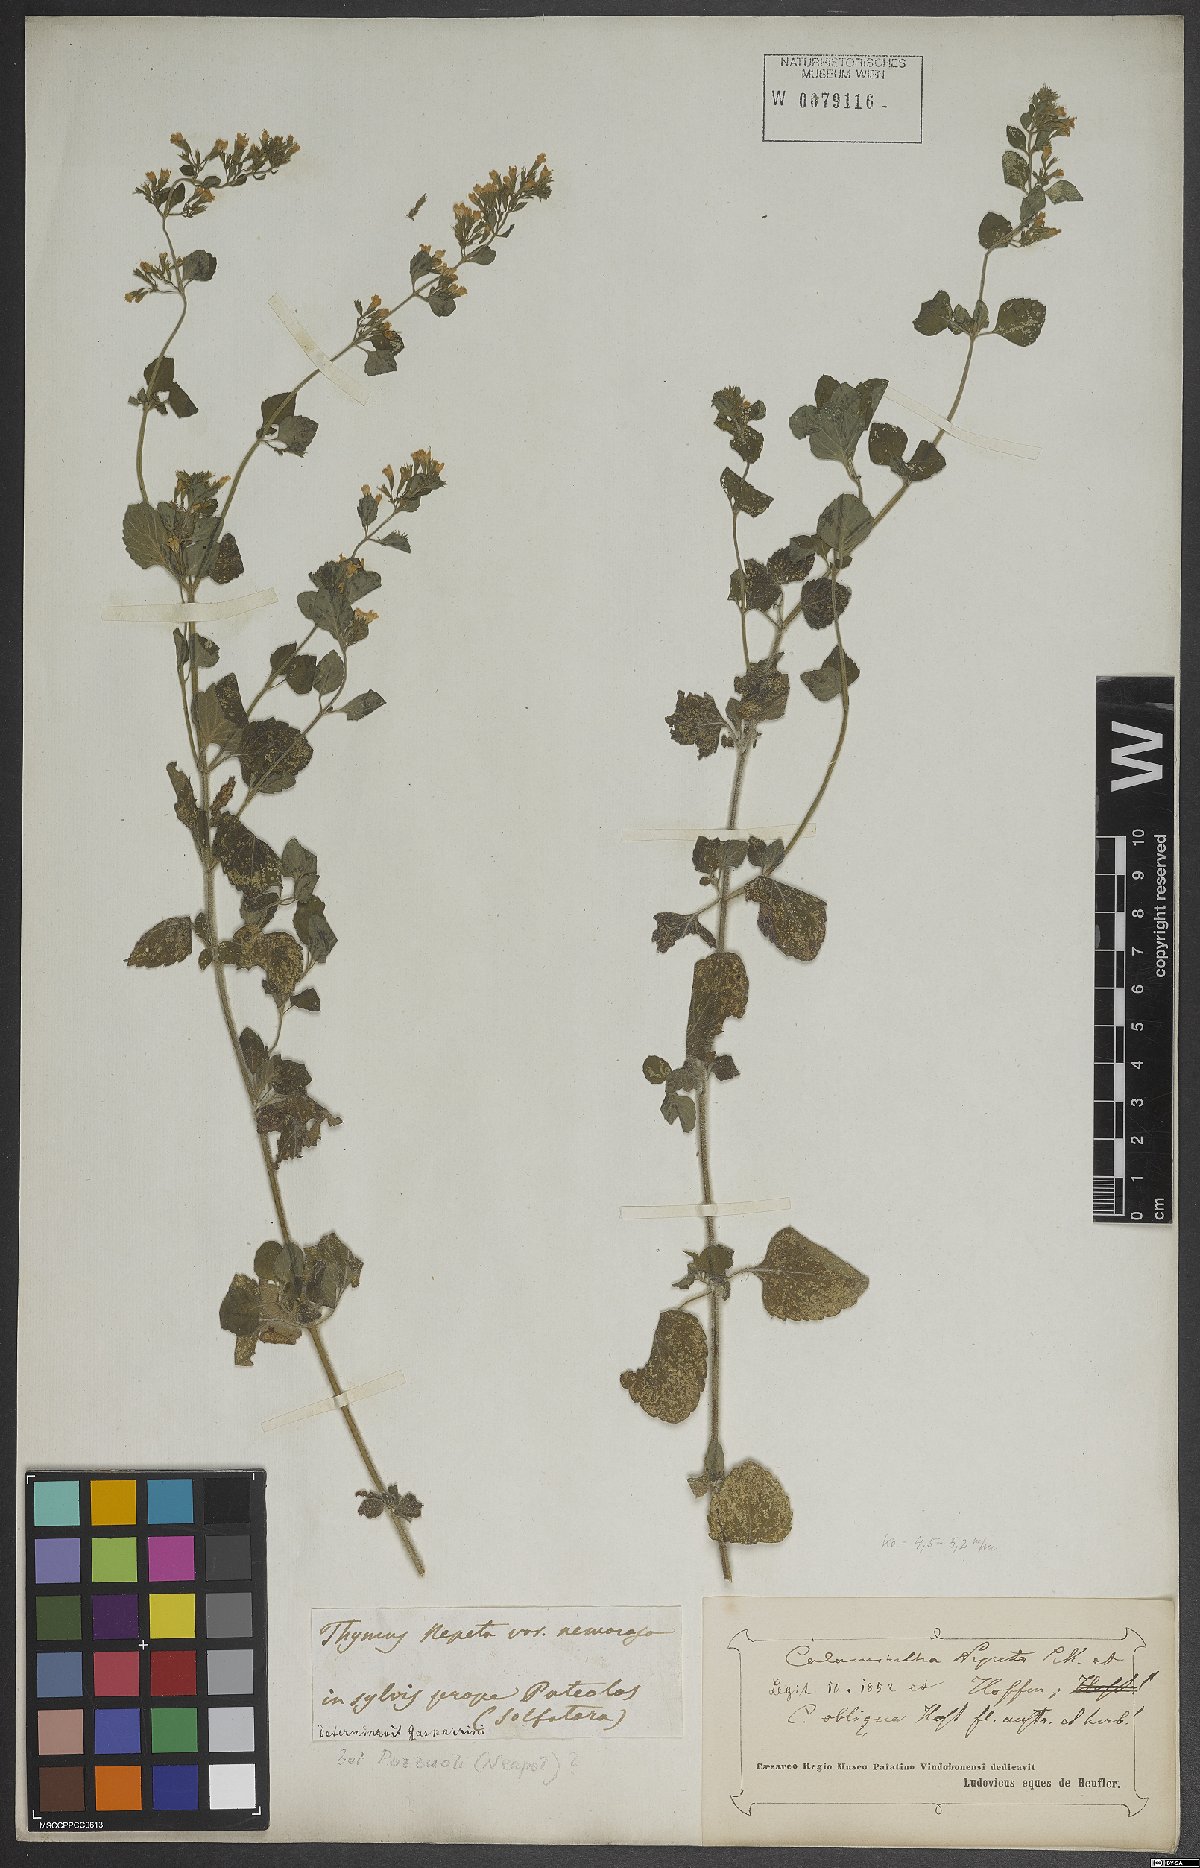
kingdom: Plantae
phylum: Tracheophyta
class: Magnoliopsida
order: Lamiales
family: Lamiaceae
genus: Clinopodium
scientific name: Clinopodium nepeta
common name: Lesser calamint
